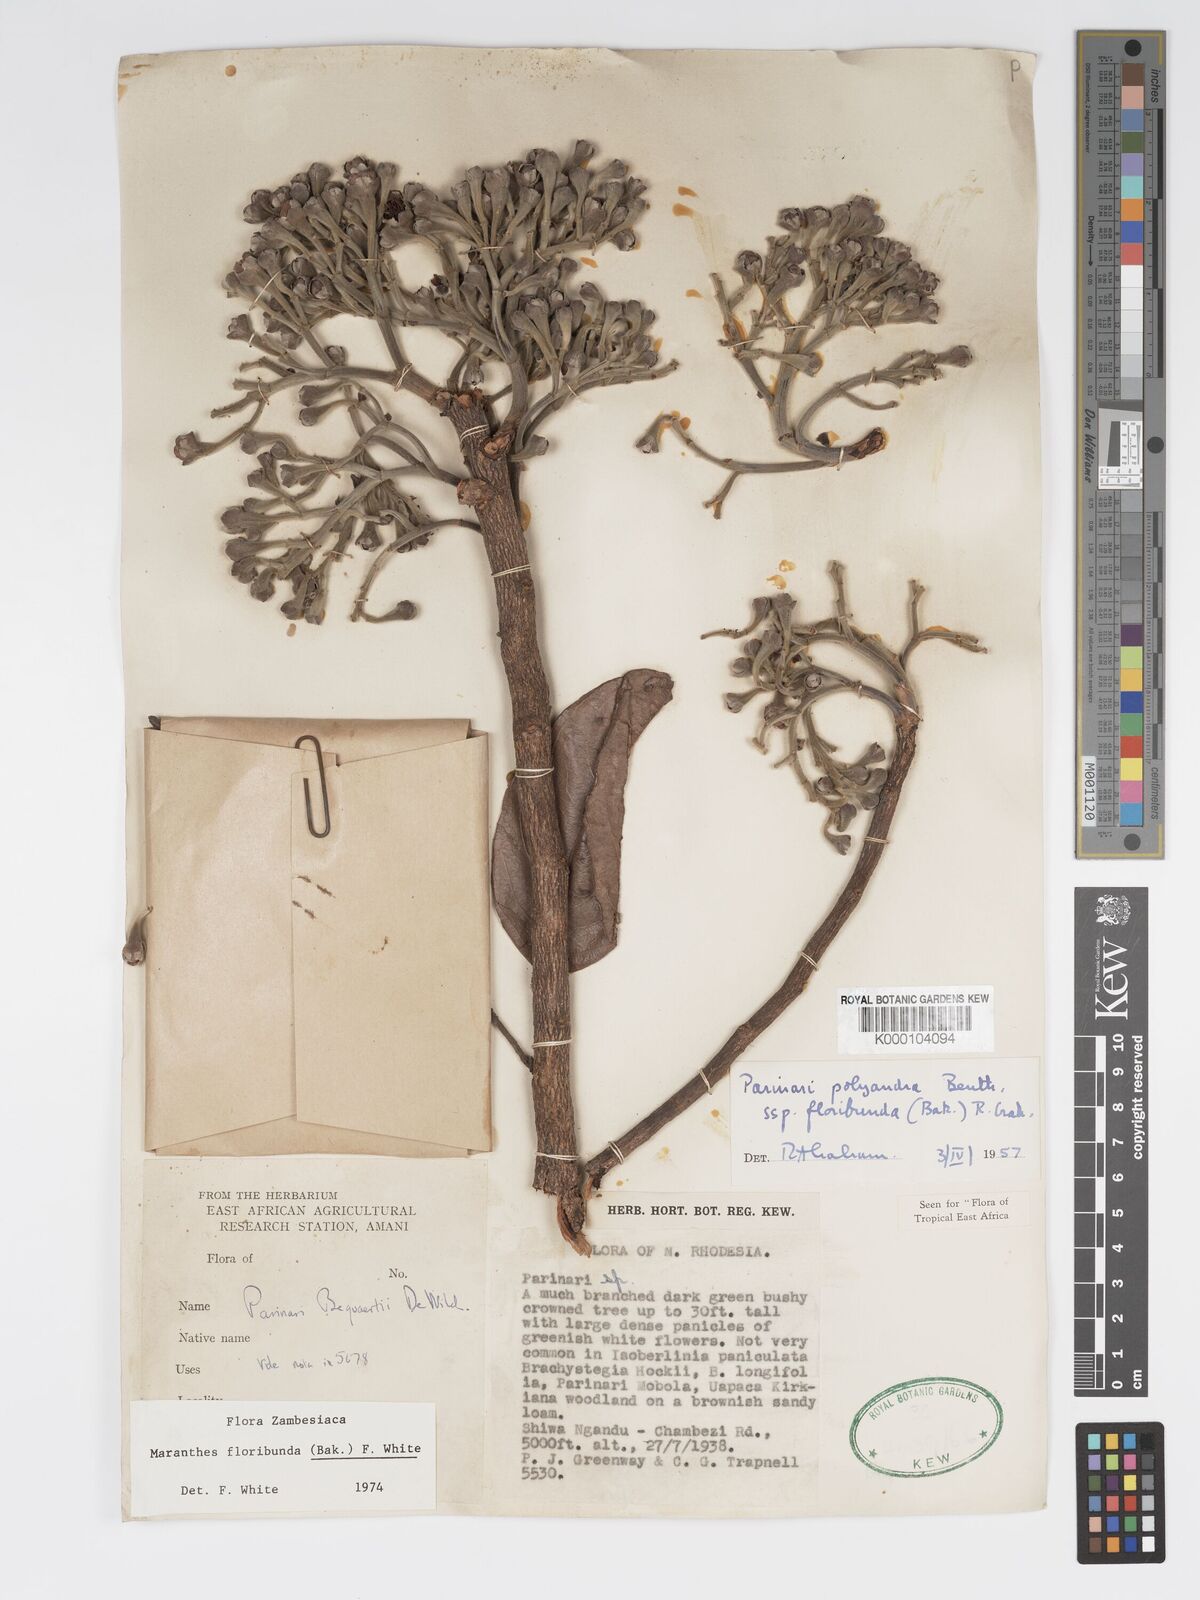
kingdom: Plantae
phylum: Tracheophyta
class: Magnoliopsida
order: Malpighiales
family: Chrysobalanaceae
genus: Maranthes
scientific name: Maranthes floribunda
